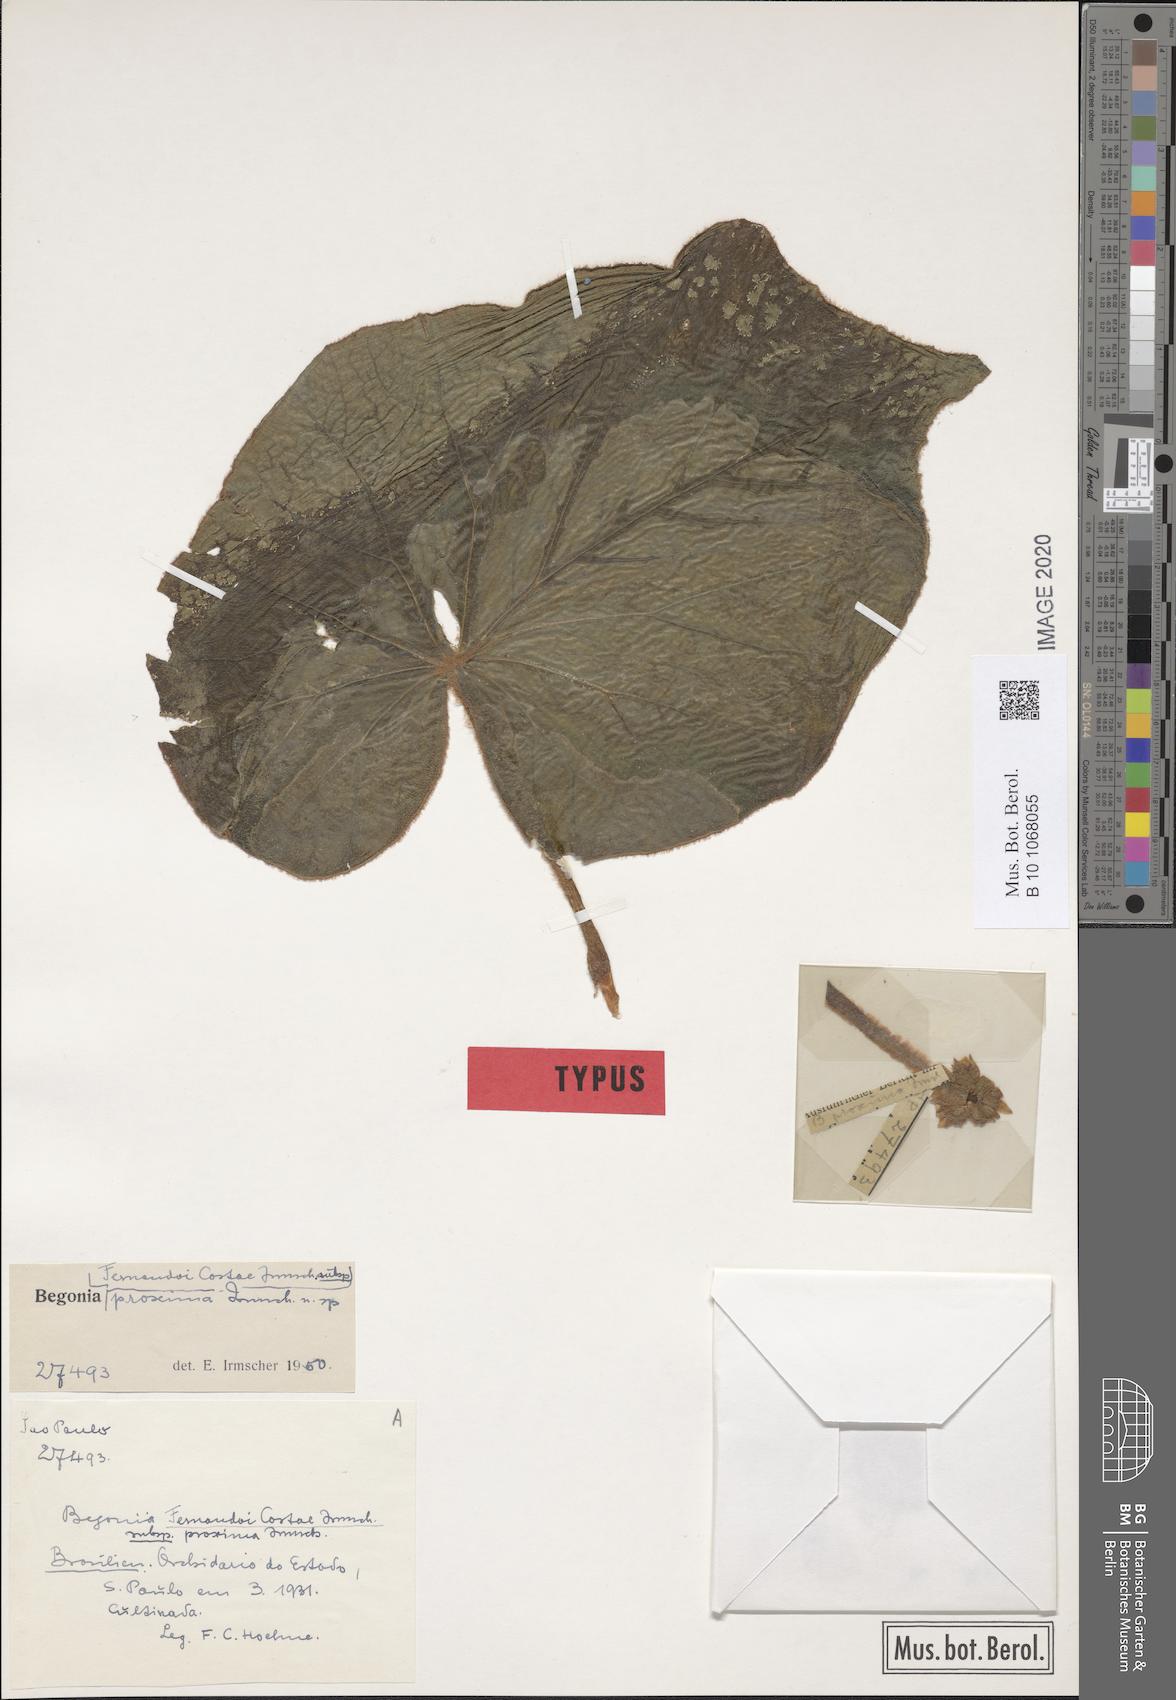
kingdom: Plantae
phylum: Tracheophyta
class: Magnoliopsida
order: Cucurbitales
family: Begoniaceae
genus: Begonia
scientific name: Begonia fernando-costae
